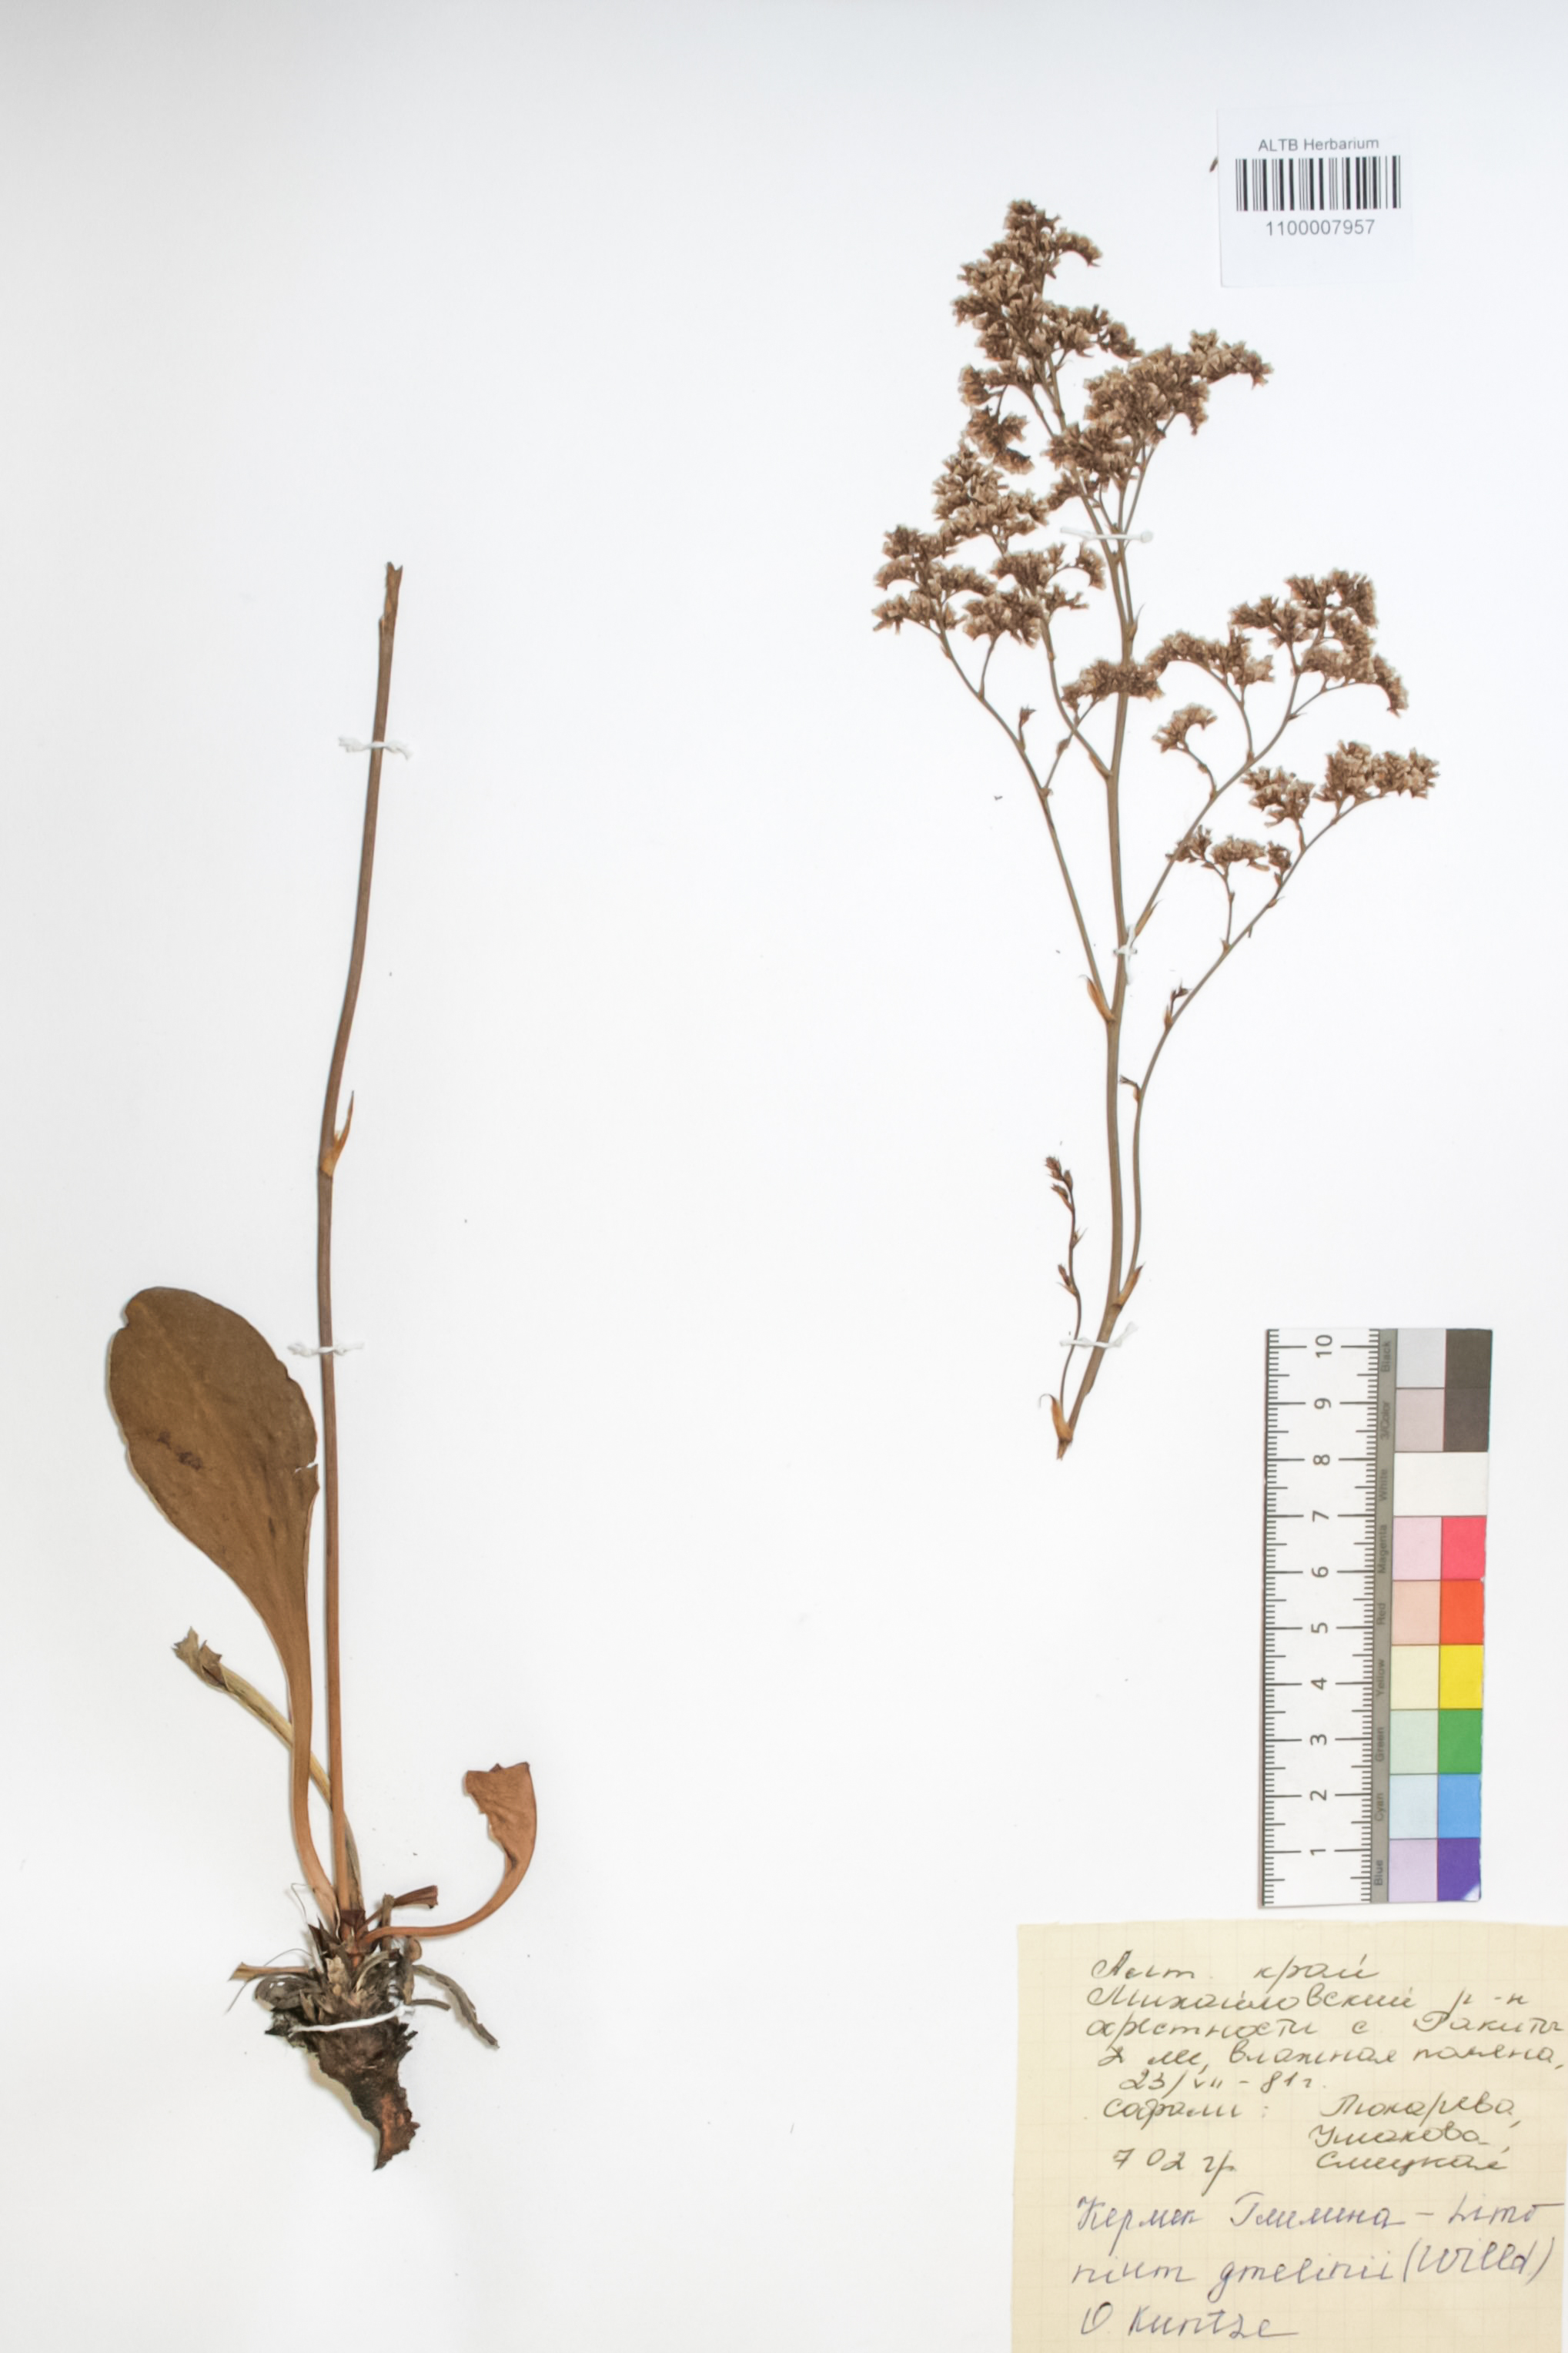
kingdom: Plantae
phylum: Tracheophyta
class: Magnoliopsida
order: Caryophyllales
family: Plumbaginaceae
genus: Limonium
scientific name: Limonium gmelini
